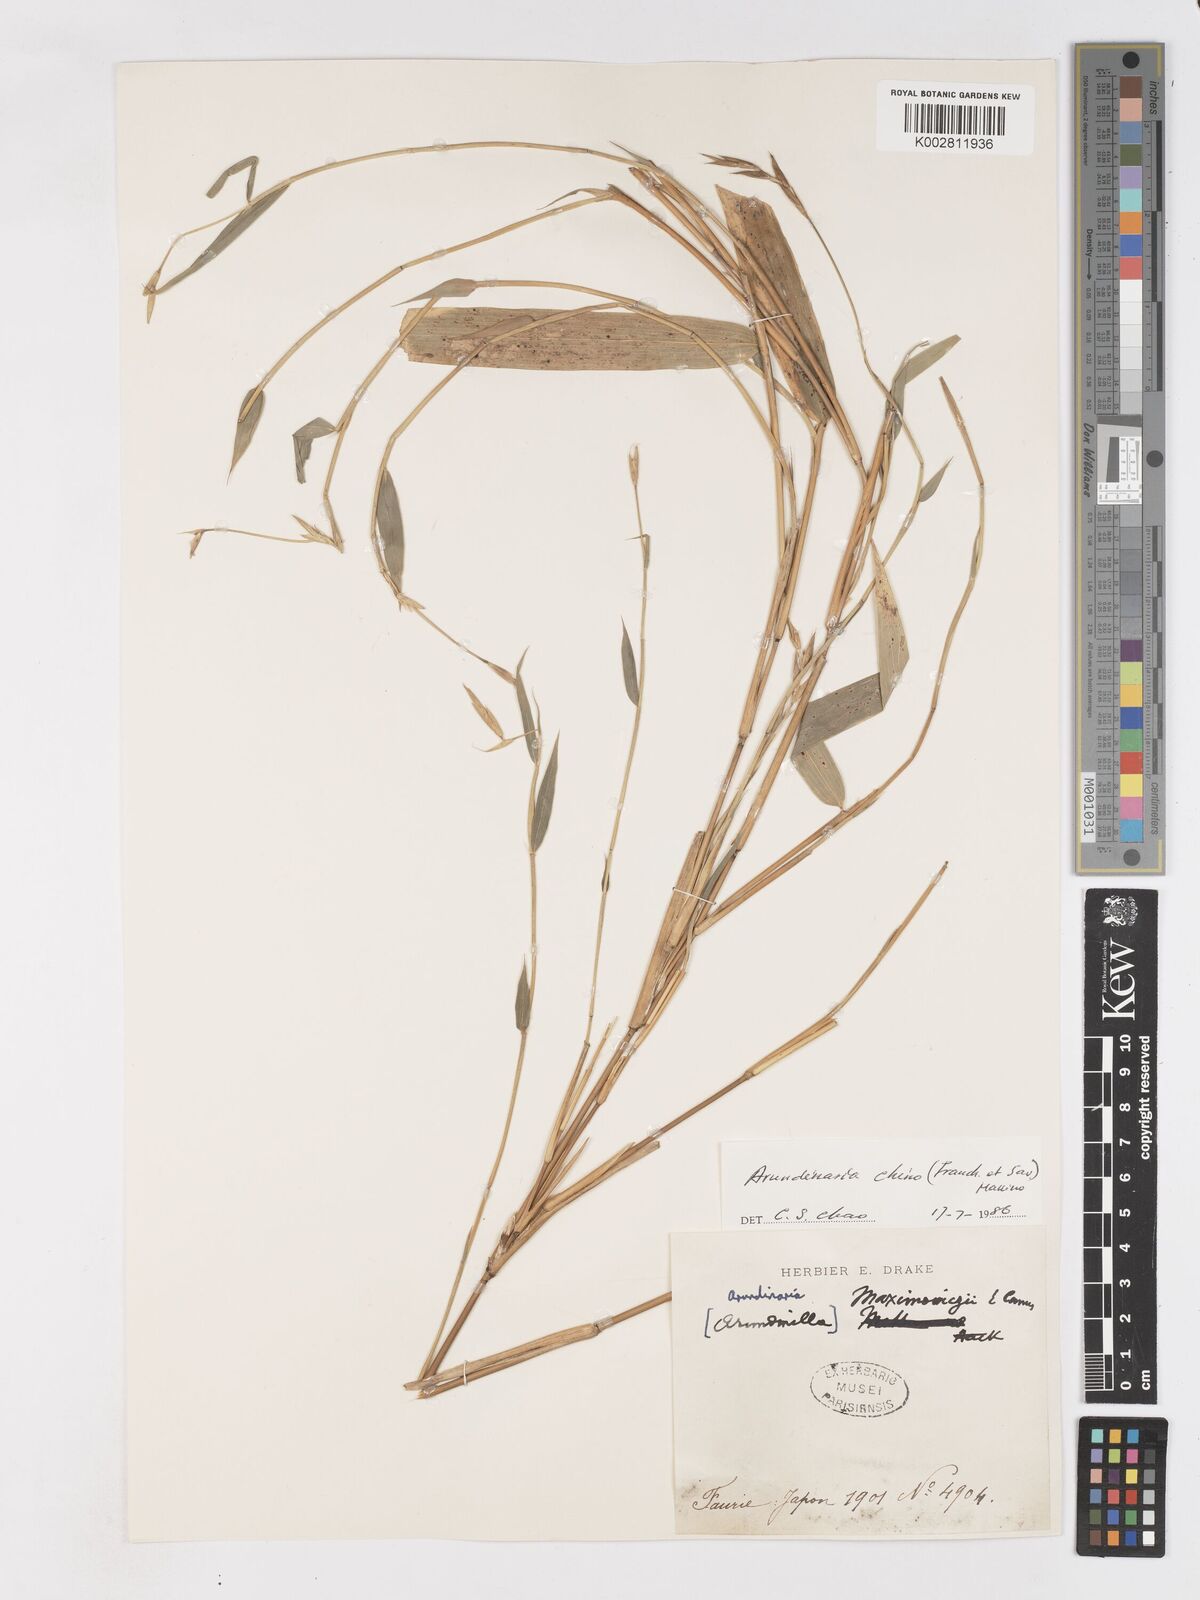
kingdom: Plantae
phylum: Tracheophyta
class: Liliopsida
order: Poales
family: Poaceae
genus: Pleioblastus
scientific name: Pleioblastus argenteostriatus
